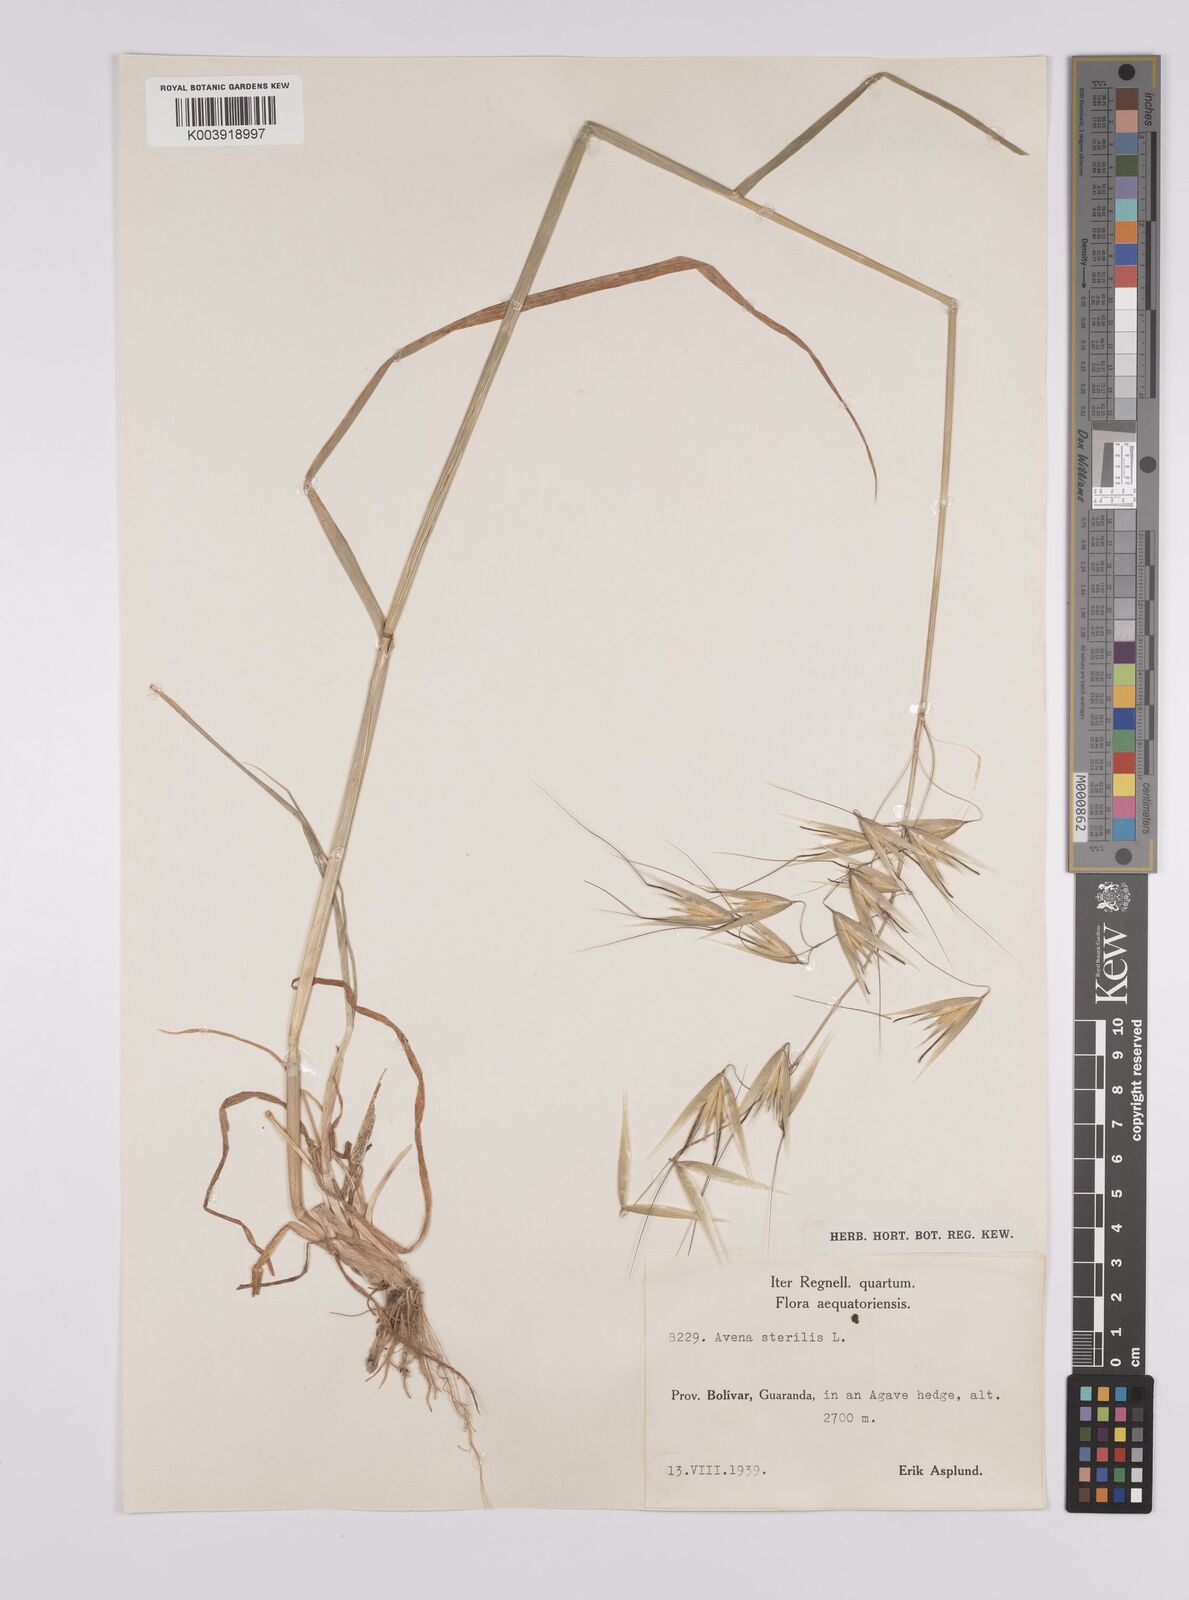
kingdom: Plantae
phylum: Tracheophyta
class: Liliopsida
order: Poales
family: Poaceae
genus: Avena
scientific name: Avena sterilis
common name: Animated oat
